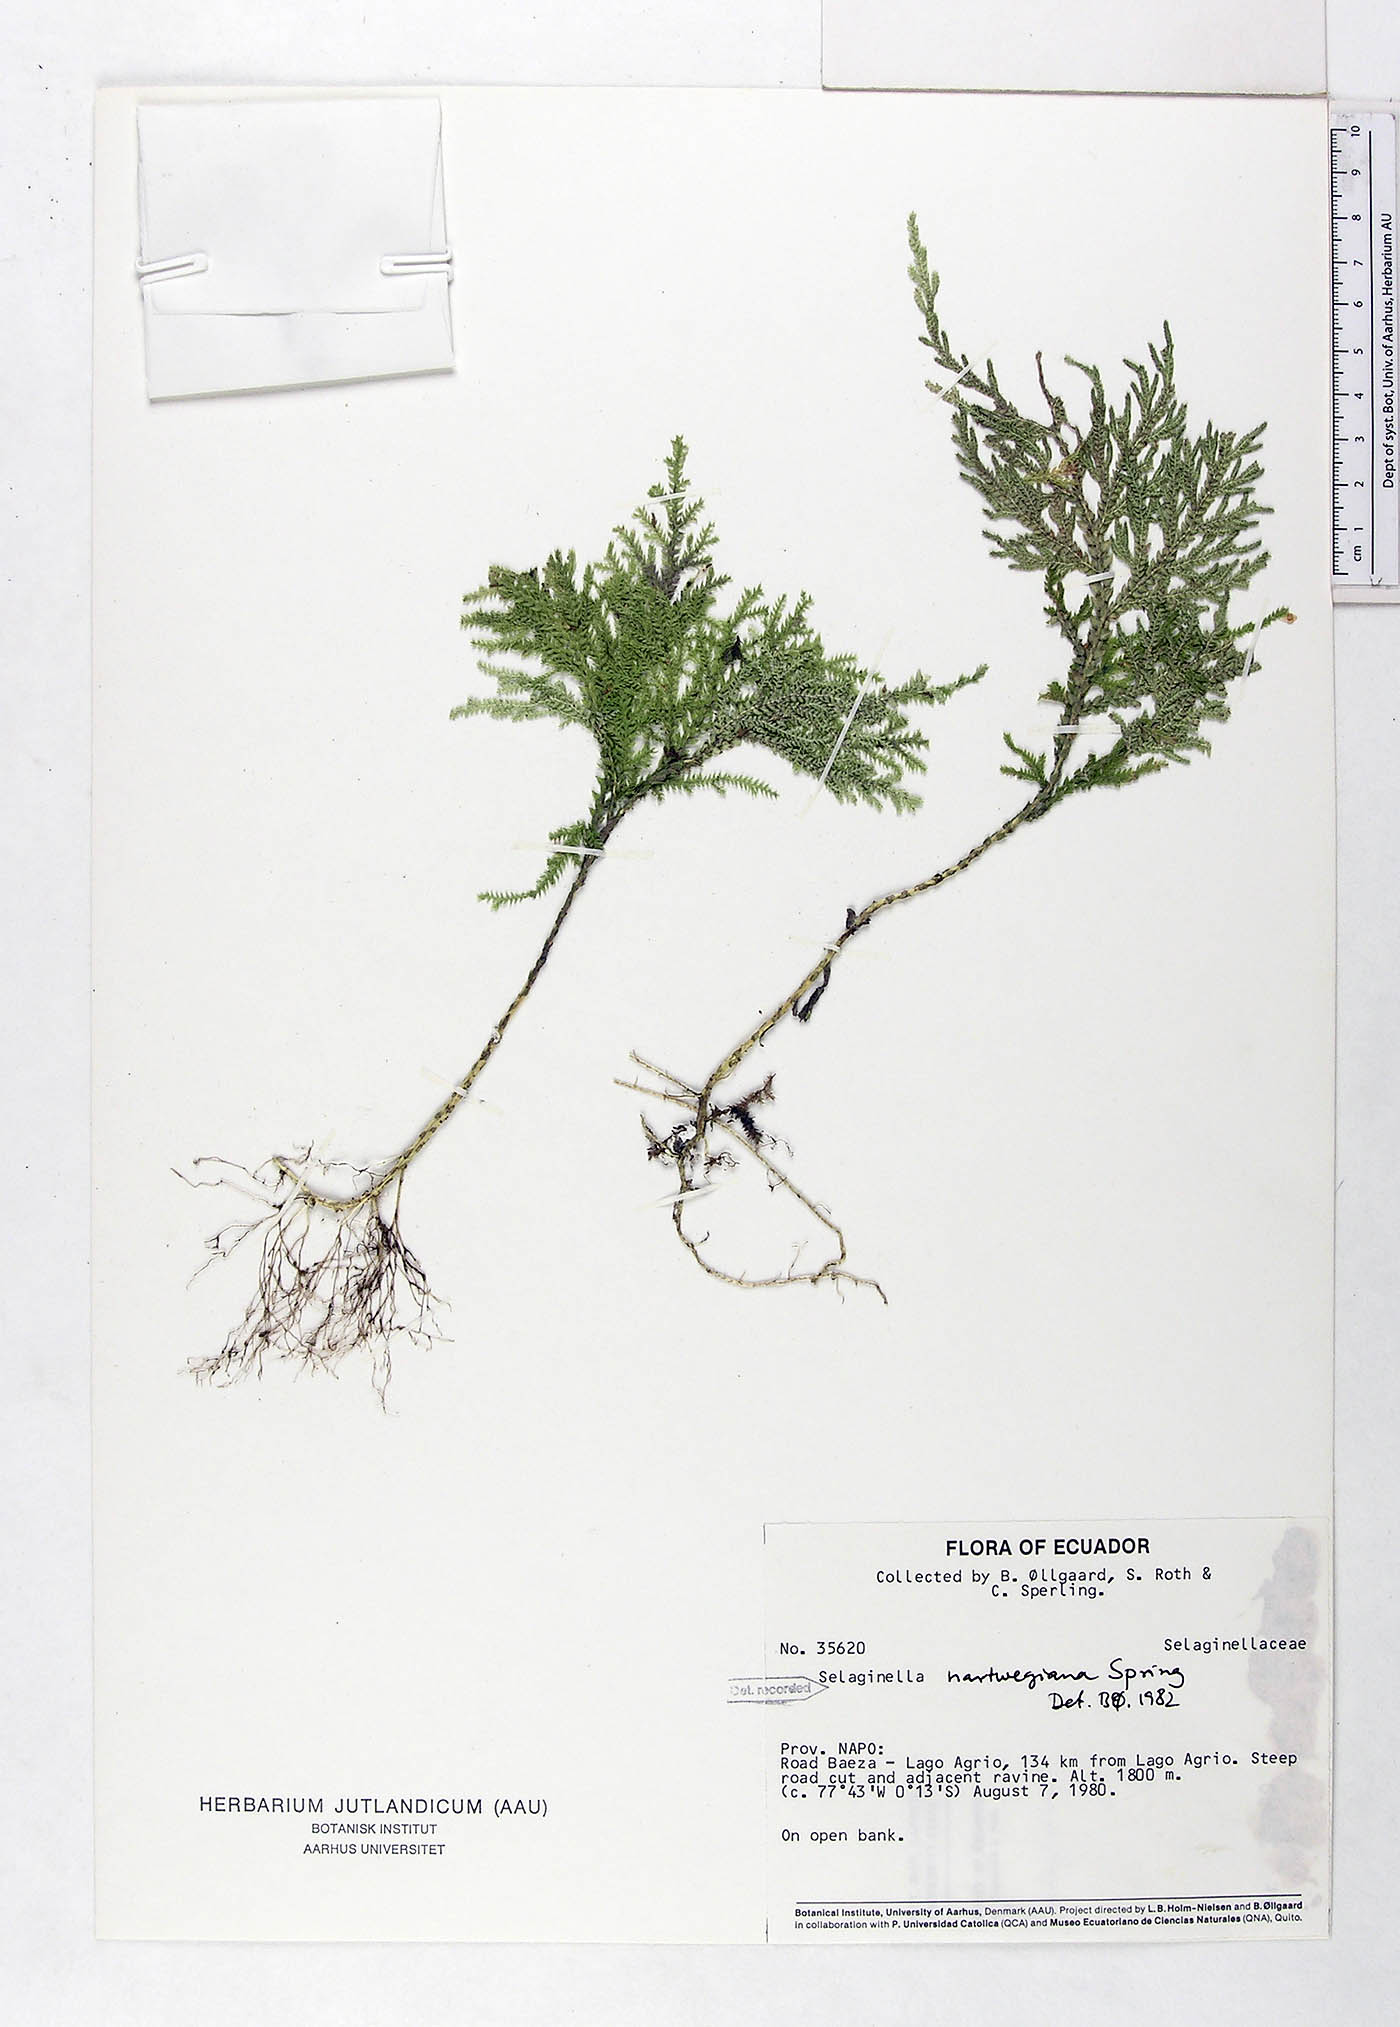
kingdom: Plantae
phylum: Tracheophyta
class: Lycopodiopsida
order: Selaginellales
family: Selaginellaceae
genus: Selaginella
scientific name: Selaginella hartwegiana
